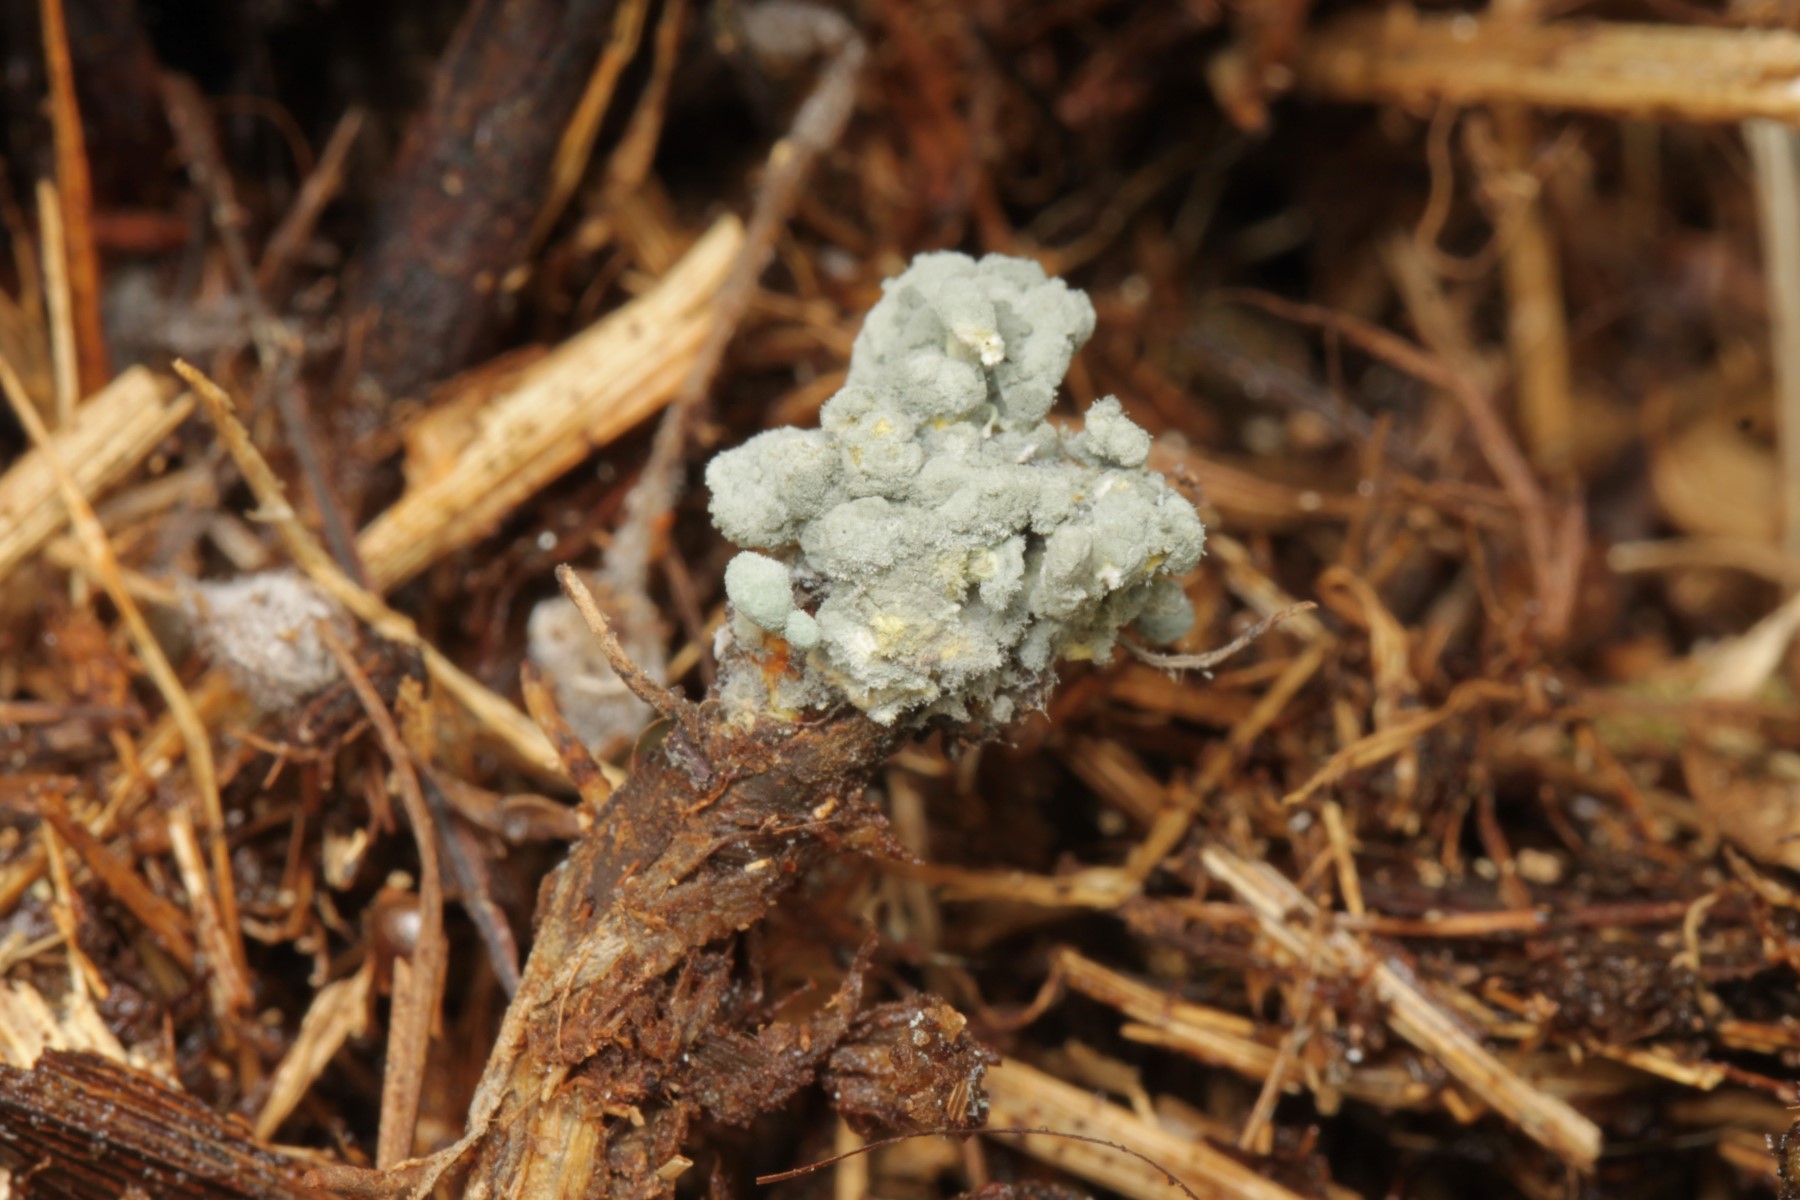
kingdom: Fungi
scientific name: Fungi
